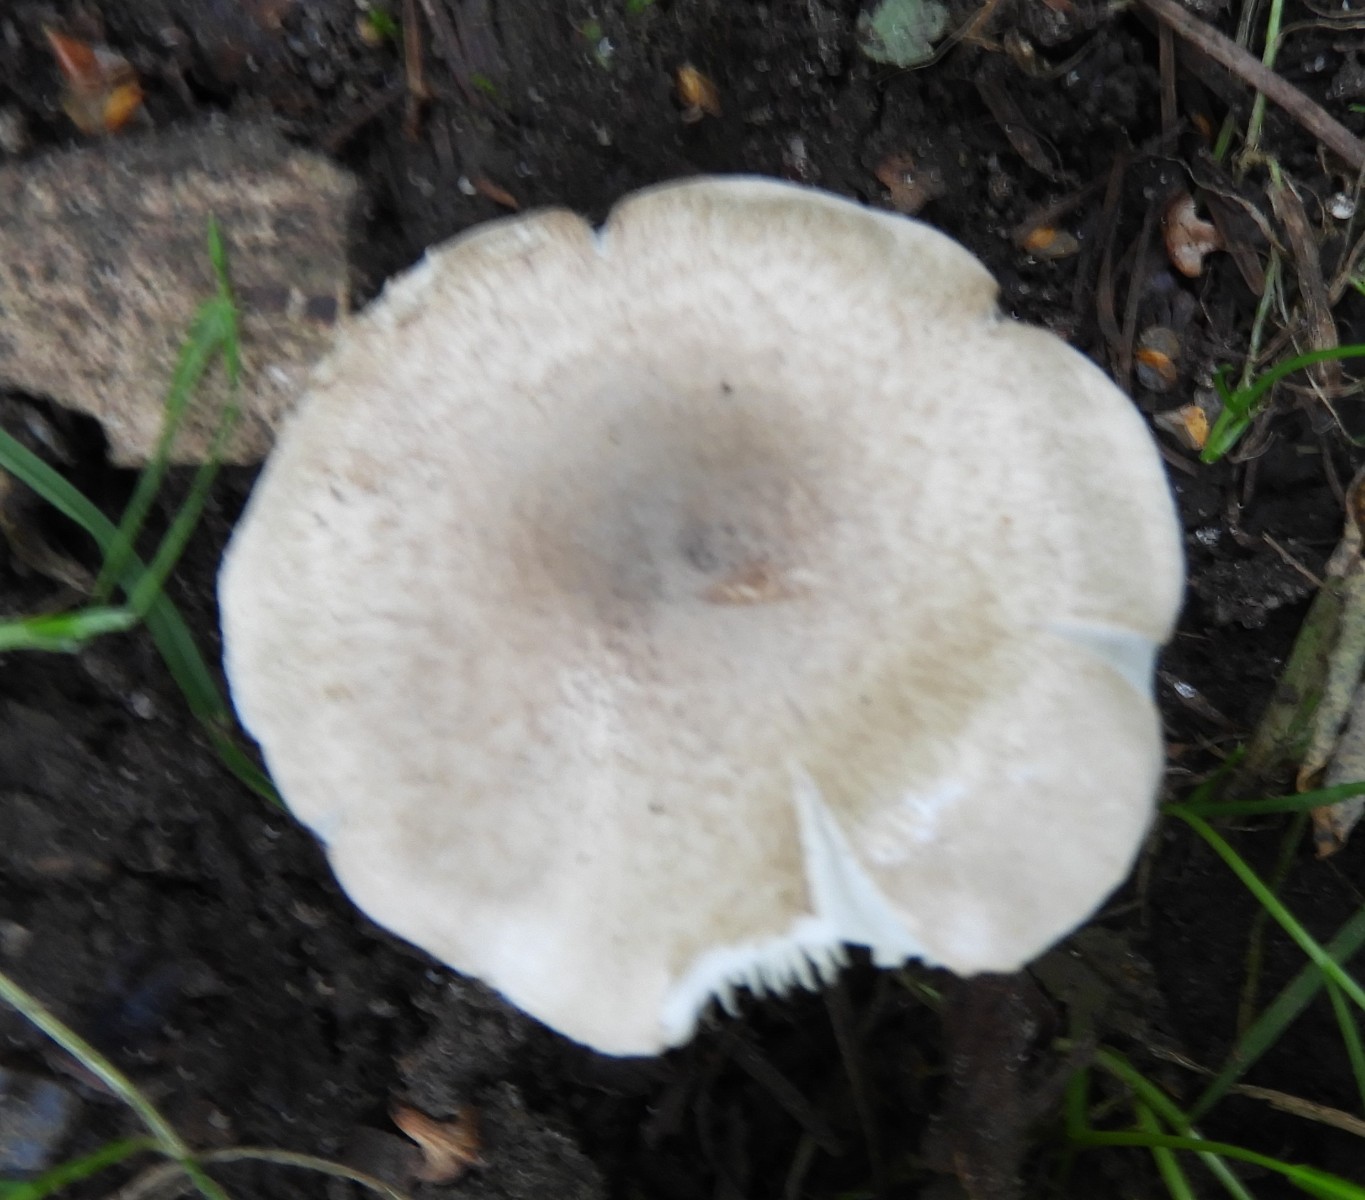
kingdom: Fungi
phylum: Basidiomycota
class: Agaricomycetes
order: Agaricales
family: Tricholomataceae
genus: Tricholoma
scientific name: Tricholoma scalpturatum
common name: gulplettet ridderhat
